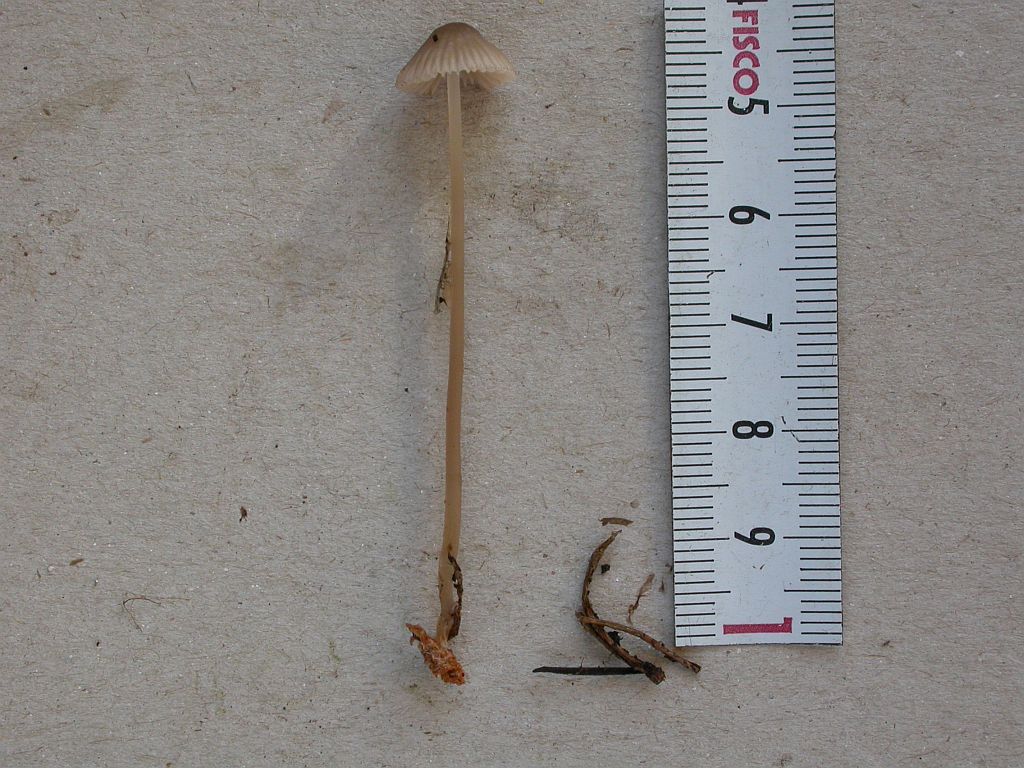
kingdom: Fungi
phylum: Basidiomycota
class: Agaricomycetes
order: Agaricales
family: Mycenaceae
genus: Mycena
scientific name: Mycena capillaripes
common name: nåle-huesvamp
